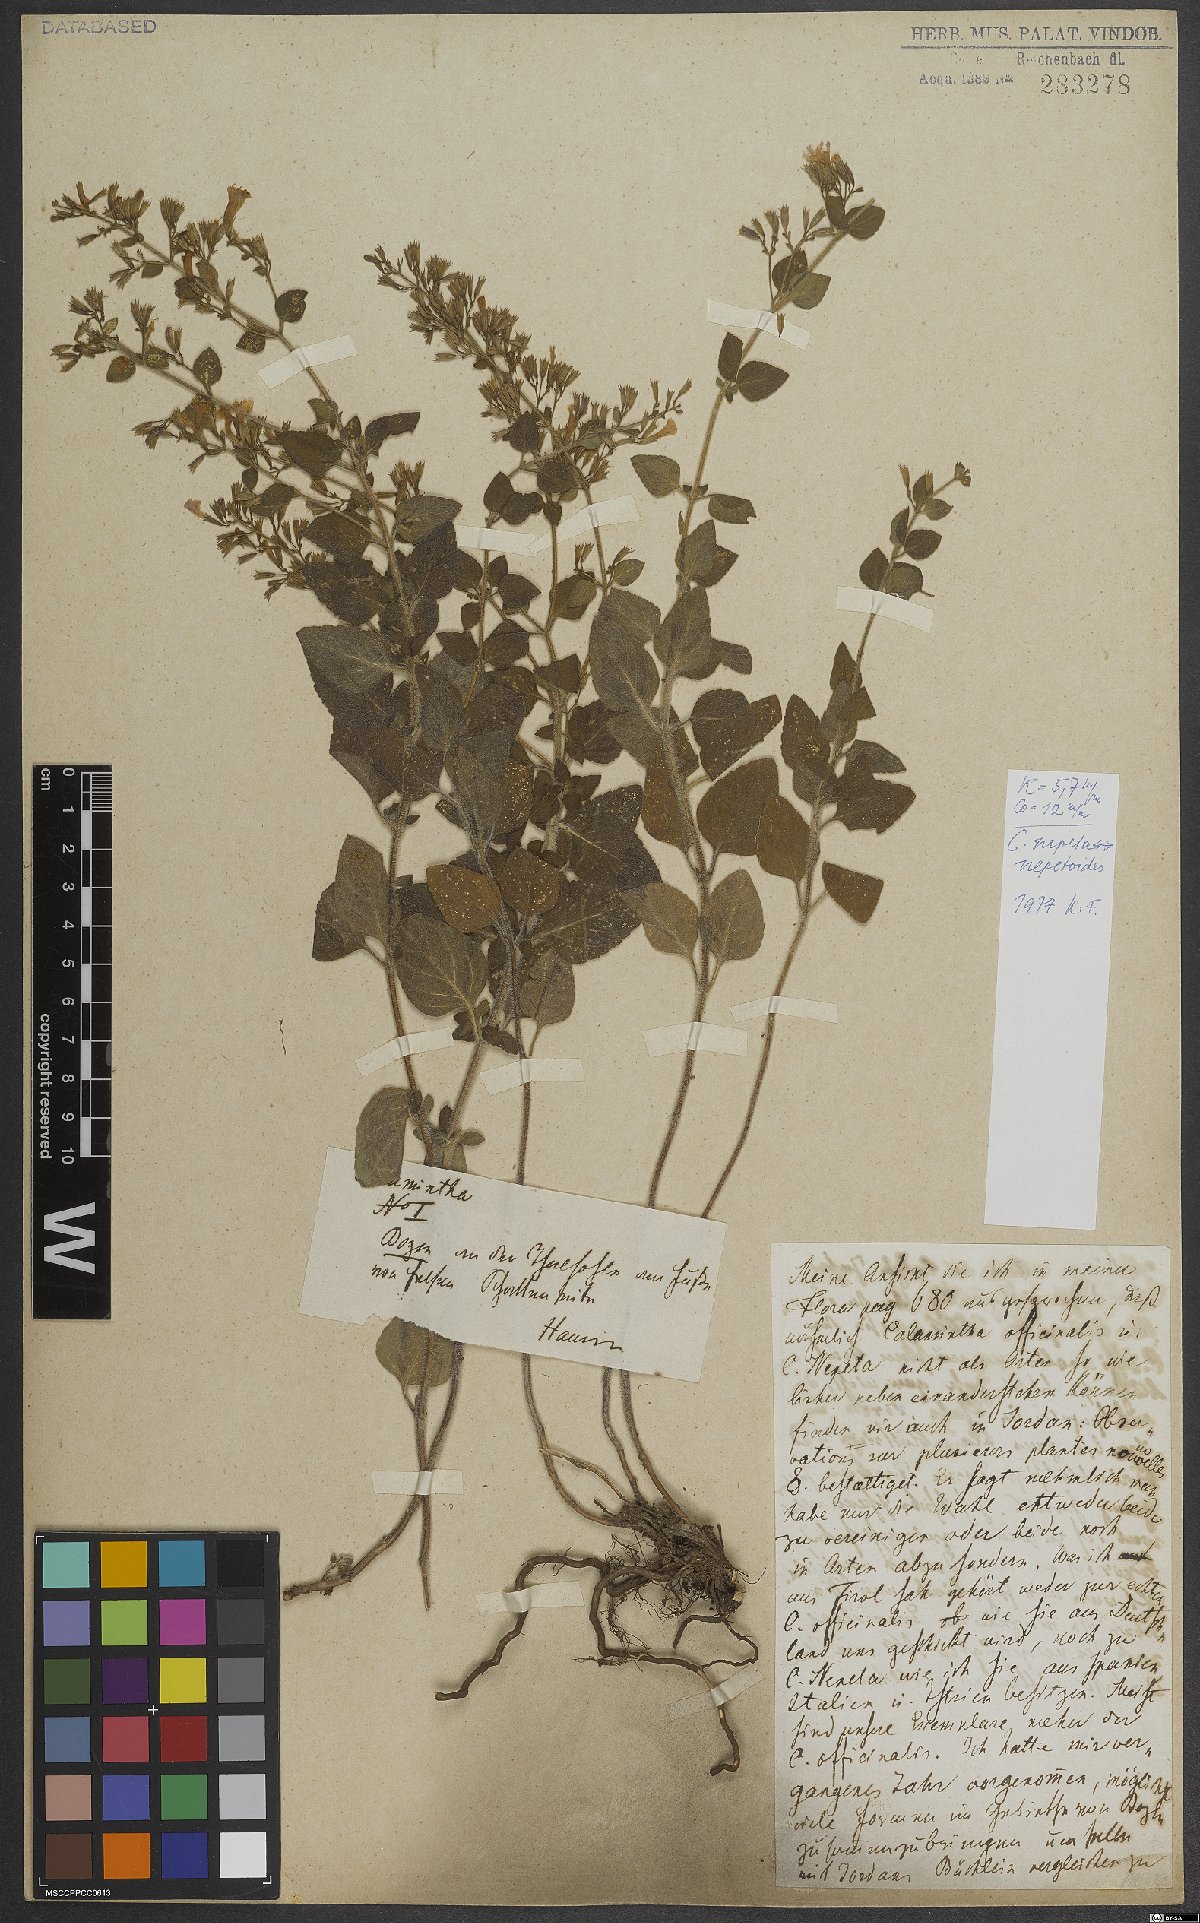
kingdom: Plantae
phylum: Tracheophyta
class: Magnoliopsida
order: Lamiales
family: Lamiaceae
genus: Clinopodium
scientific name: Clinopodium nepeta
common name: Lesser calamint
